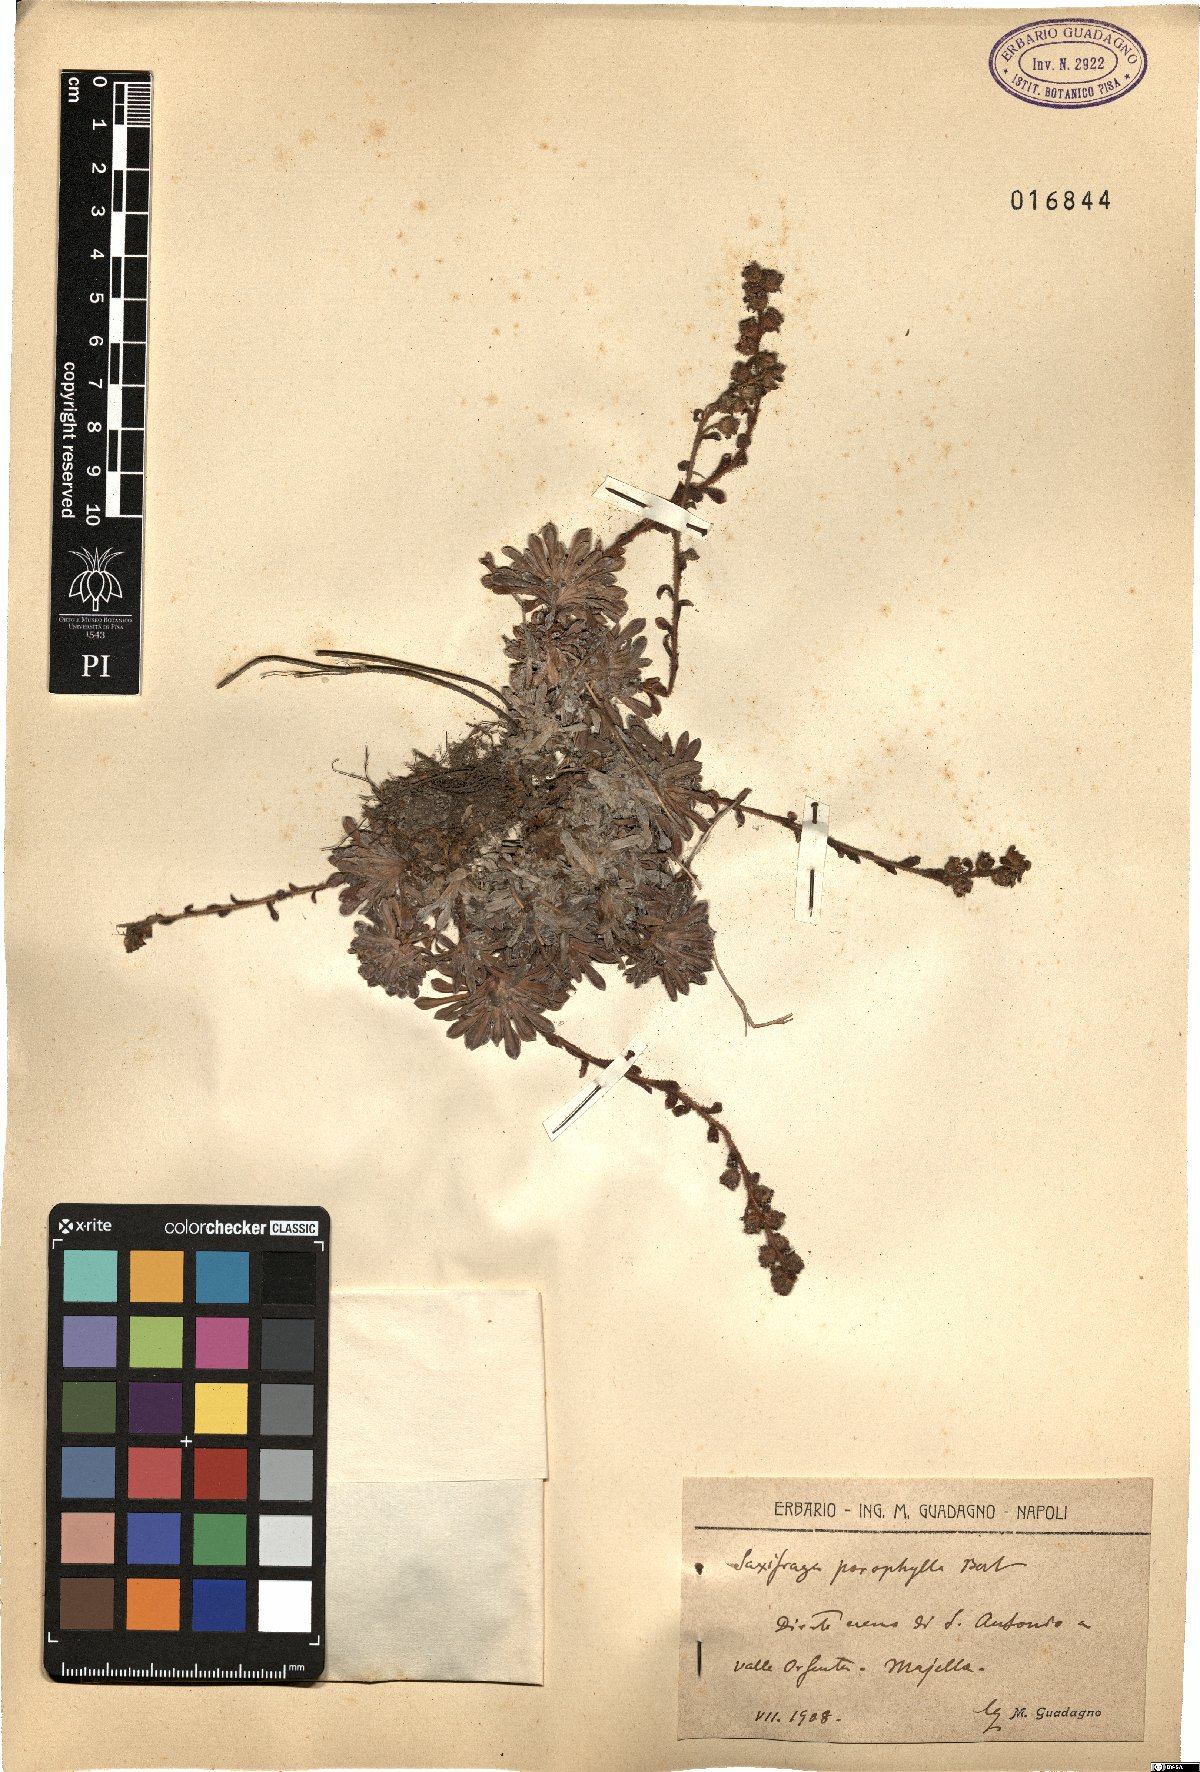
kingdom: Plantae
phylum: Tracheophyta
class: Magnoliopsida
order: Saxifragales
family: Saxifragaceae
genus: Saxifraga
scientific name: Saxifraga porophylla
